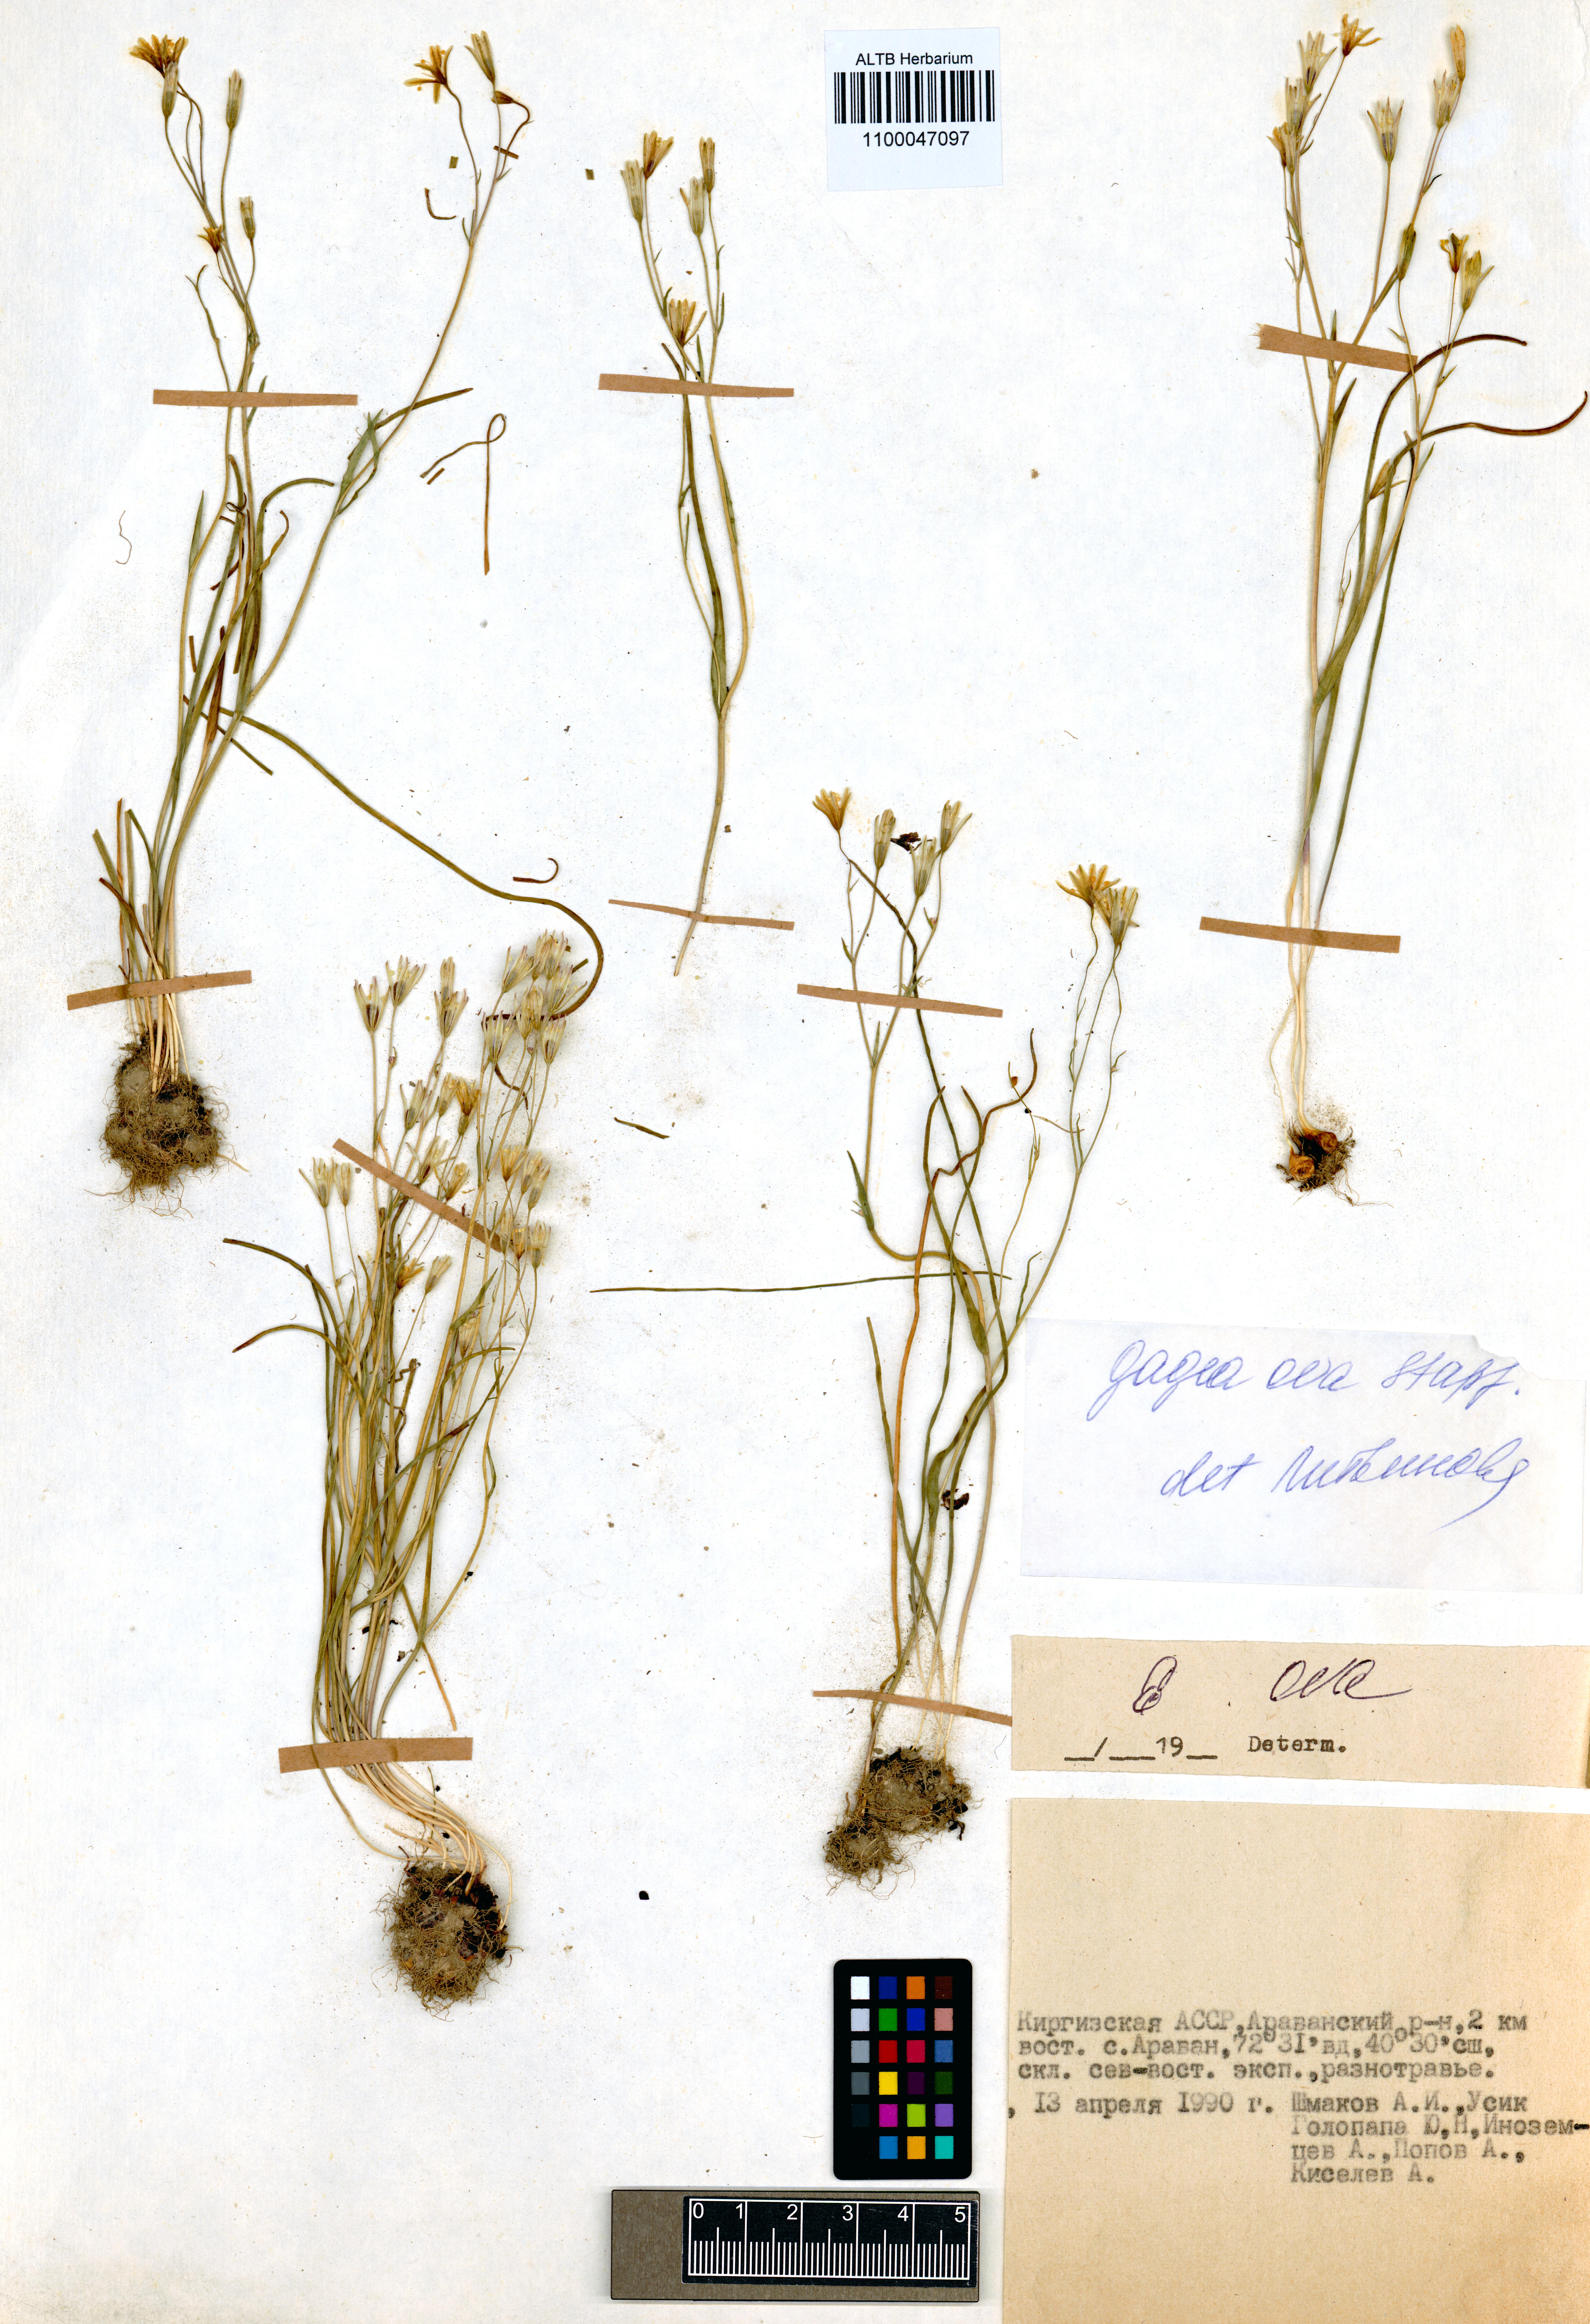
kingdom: Plantae
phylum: Tracheophyta
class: Liliopsida
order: Liliales
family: Liliaceae
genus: Gagea
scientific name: Gagea kunawurensis
